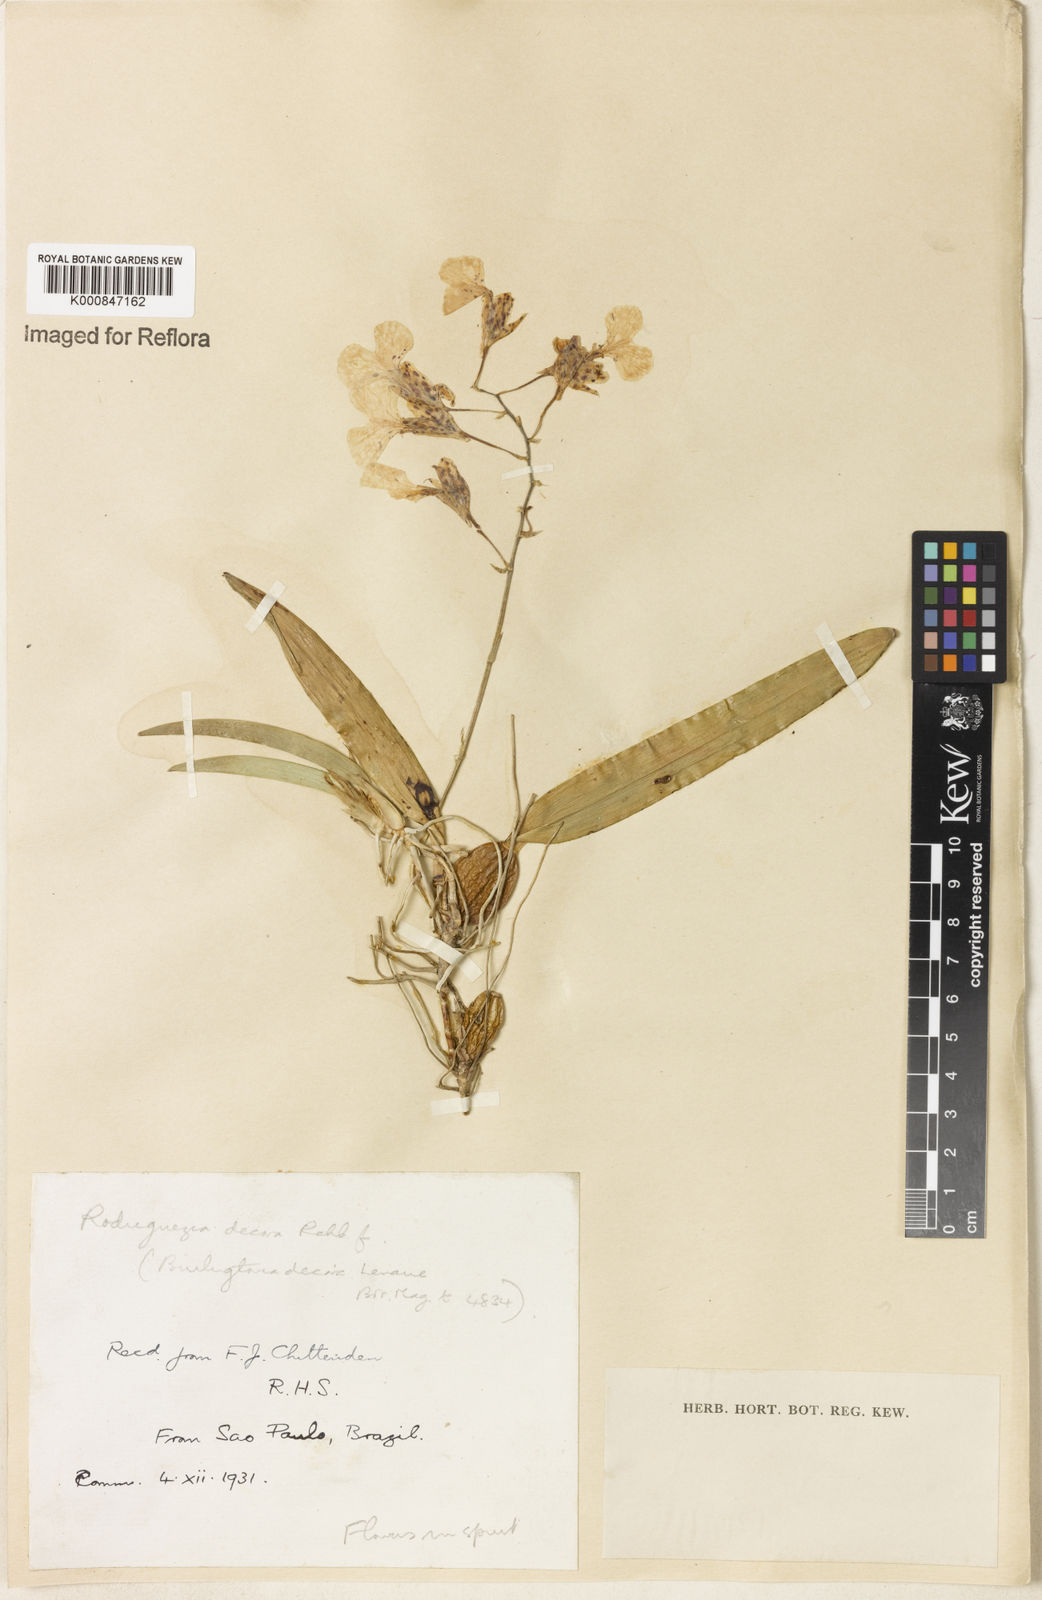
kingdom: Plantae
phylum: Tracheophyta
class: Liliopsida
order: Asparagales
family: Orchidaceae
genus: Rodriguezia
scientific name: Rodriguezia decora
